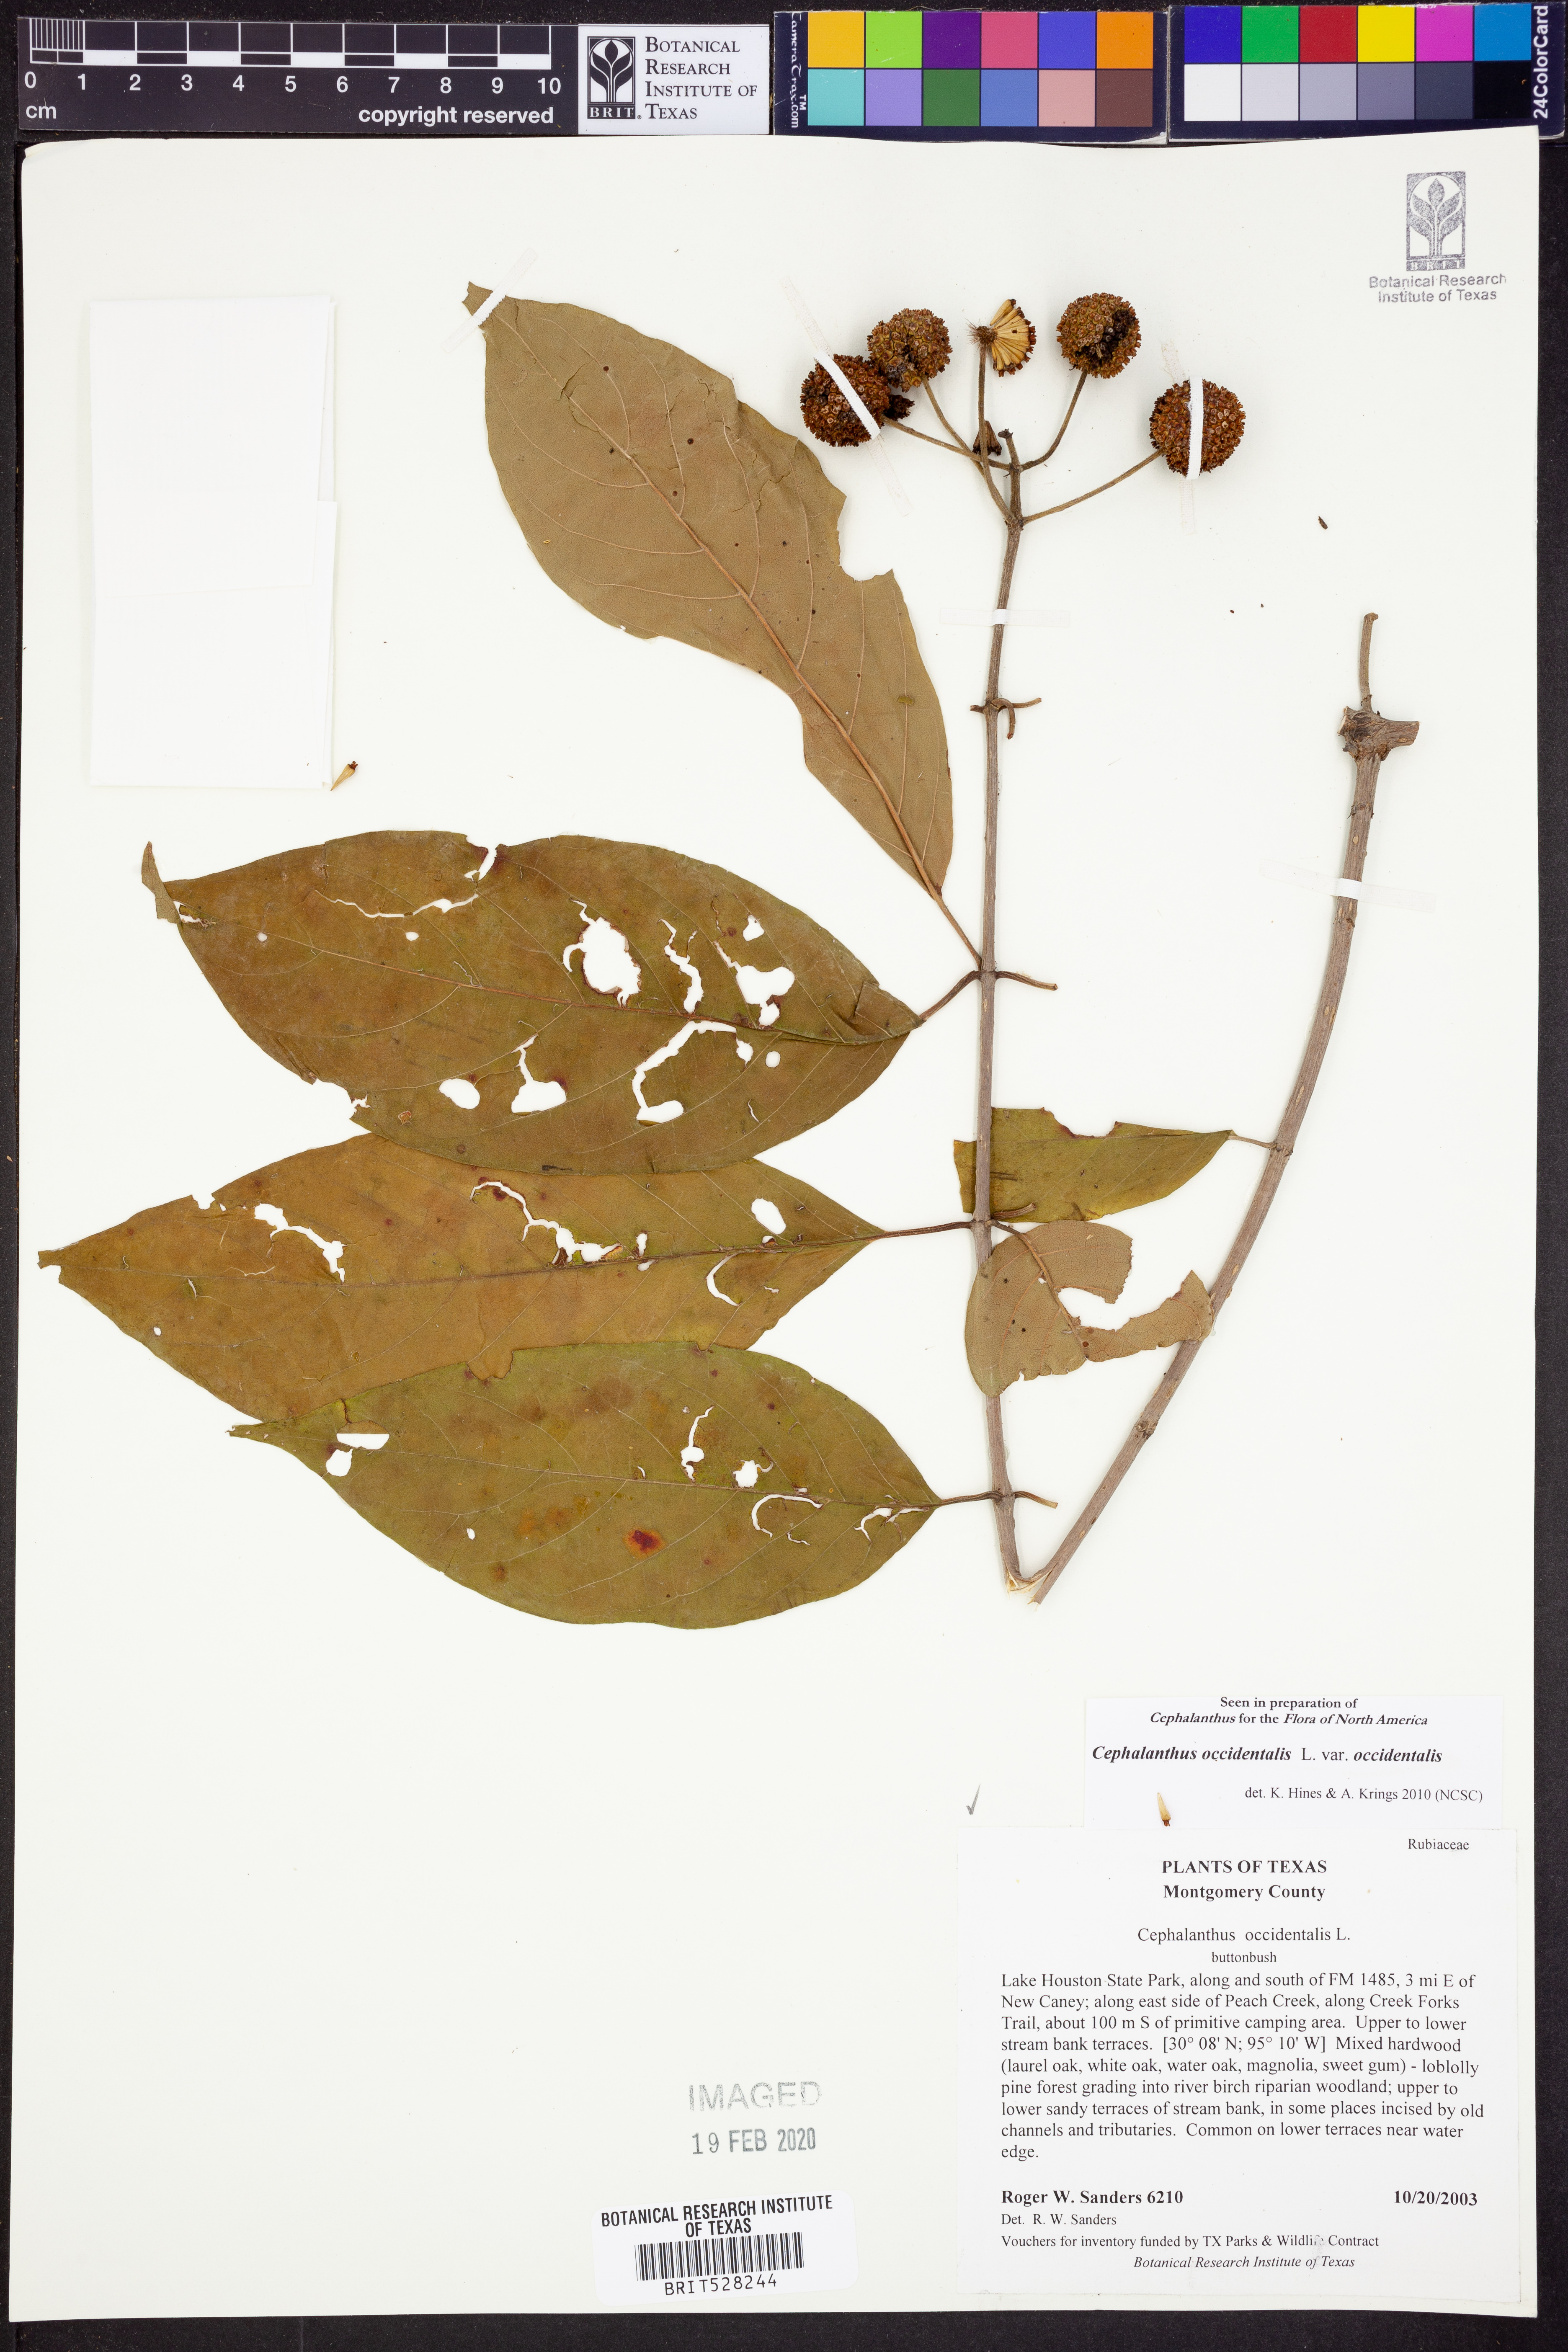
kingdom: Plantae
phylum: Tracheophyta
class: Magnoliopsida
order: Gentianales
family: Rubiaceae
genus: Cephalanthus
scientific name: Cephalanthus occidentalis
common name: Button-willow
